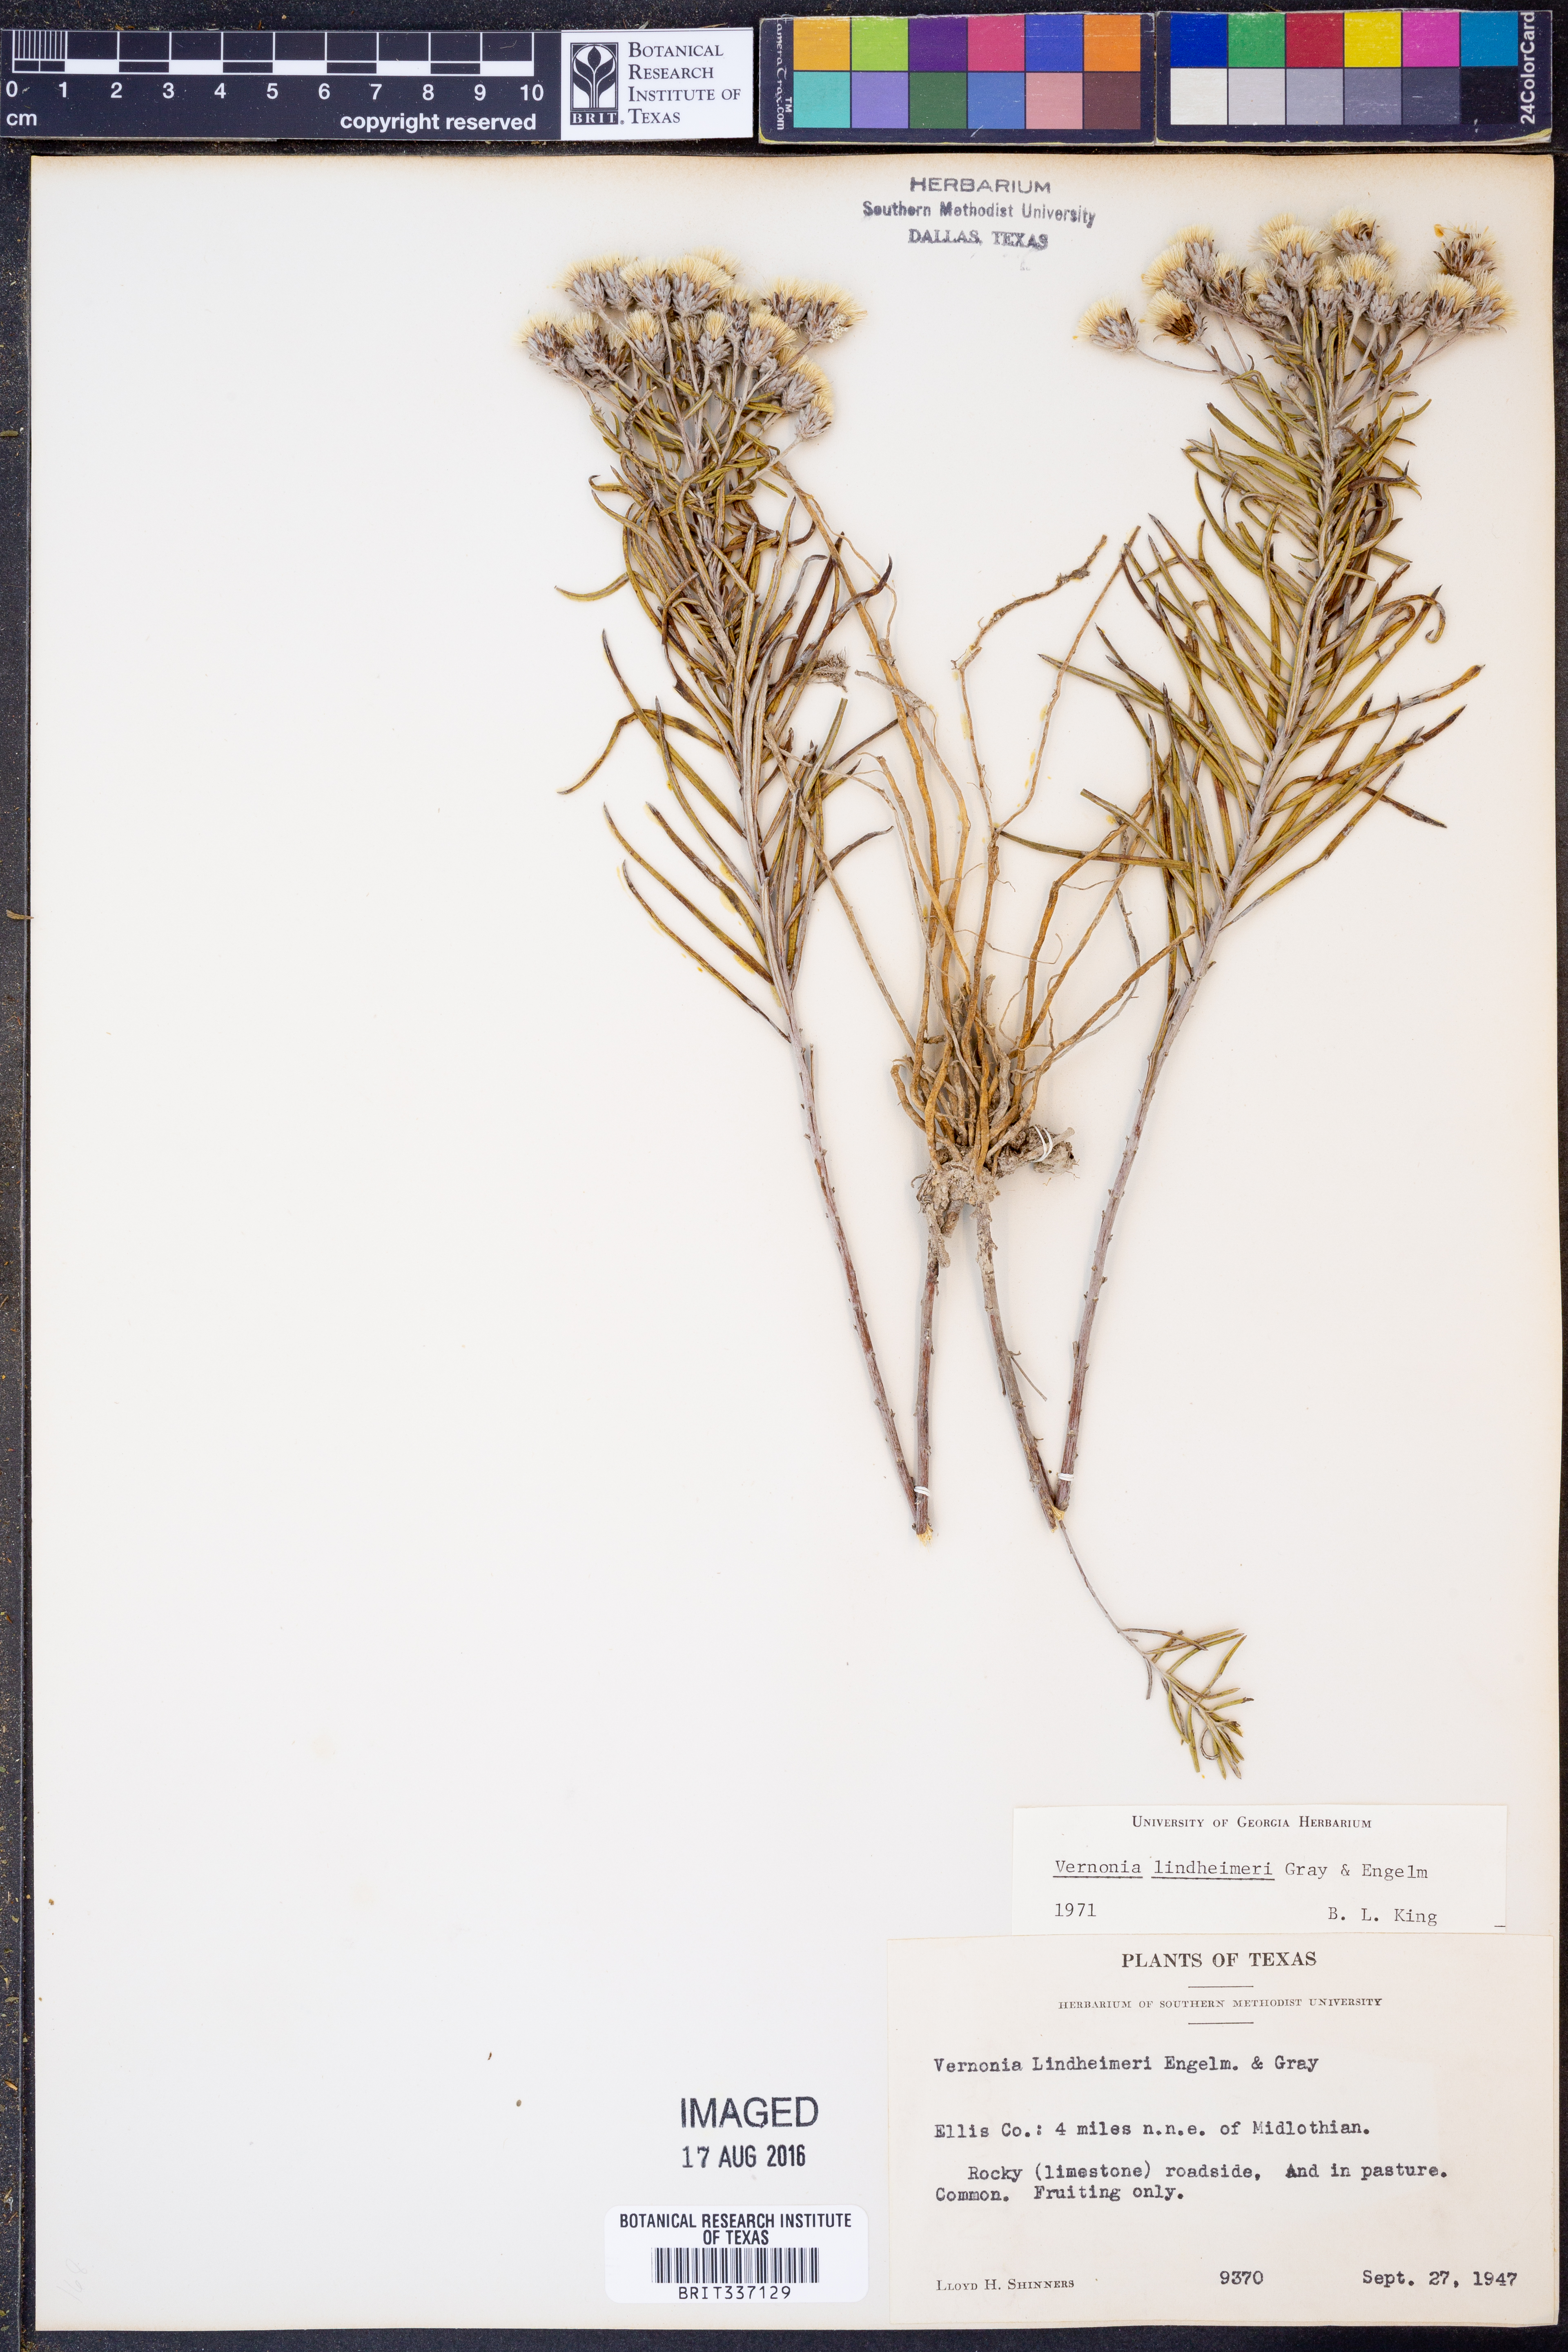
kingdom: Plantae
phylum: Tracheophyta
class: Magnoliopsida
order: Asterales
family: Asteraceae
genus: Vernonia
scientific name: Vernonia lindheimeri
